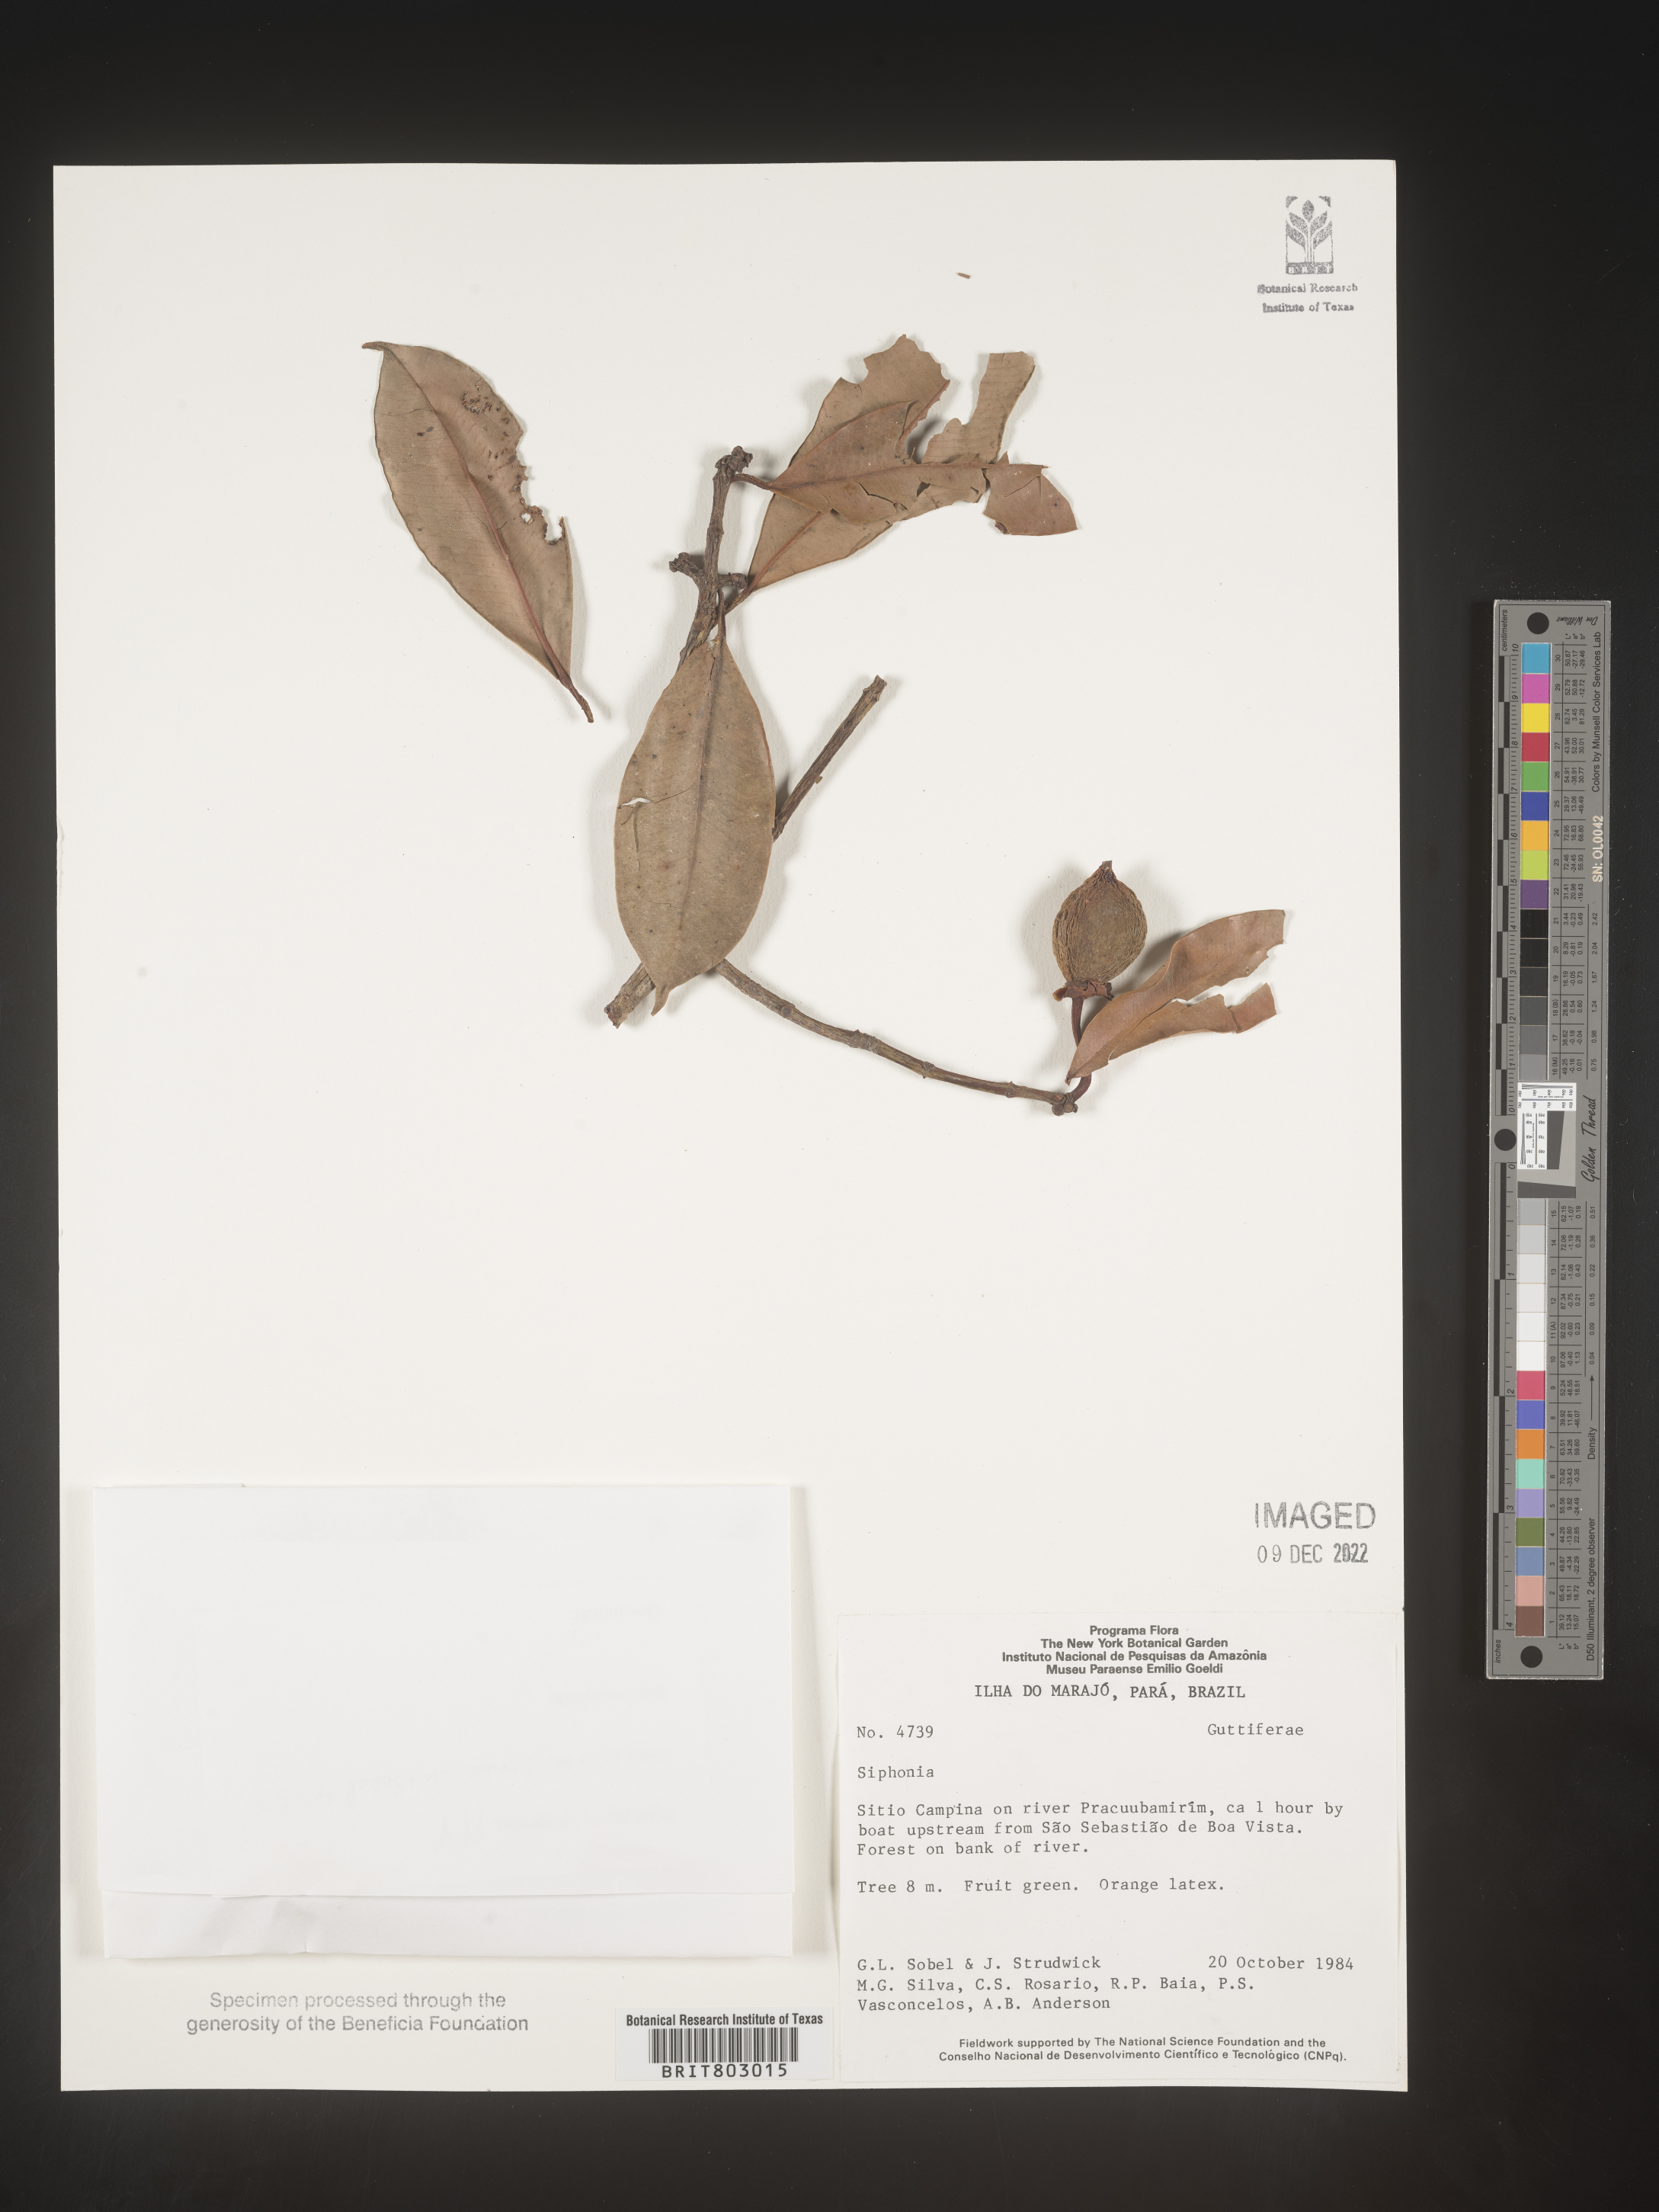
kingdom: Plantae
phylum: Tracheophyta
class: Magnoliopsida
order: Malpighiales
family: Clusiaceae
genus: Moronobea
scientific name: Moronobea
